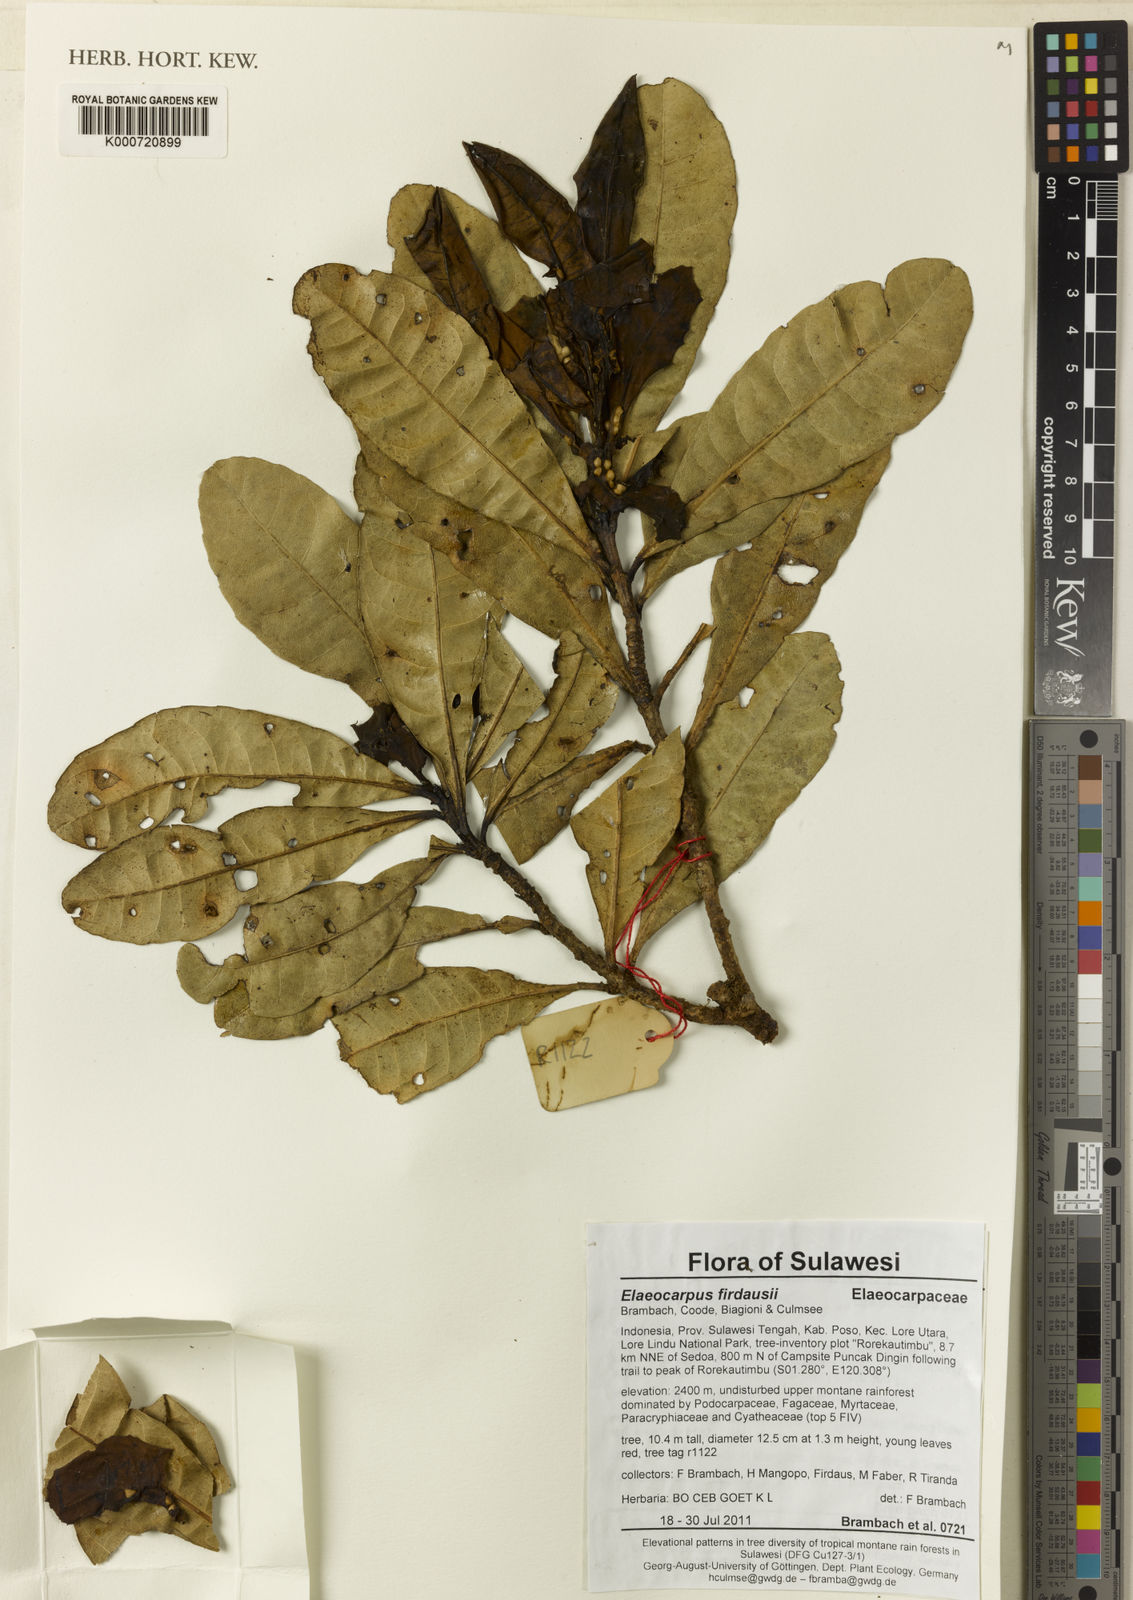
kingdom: Plantae
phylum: Tracheophyta
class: Magnoliopsida
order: Oxalidales
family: Elaeocarpaceae
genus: Elaeocarpus
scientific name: Elaeocarpus firdausii
